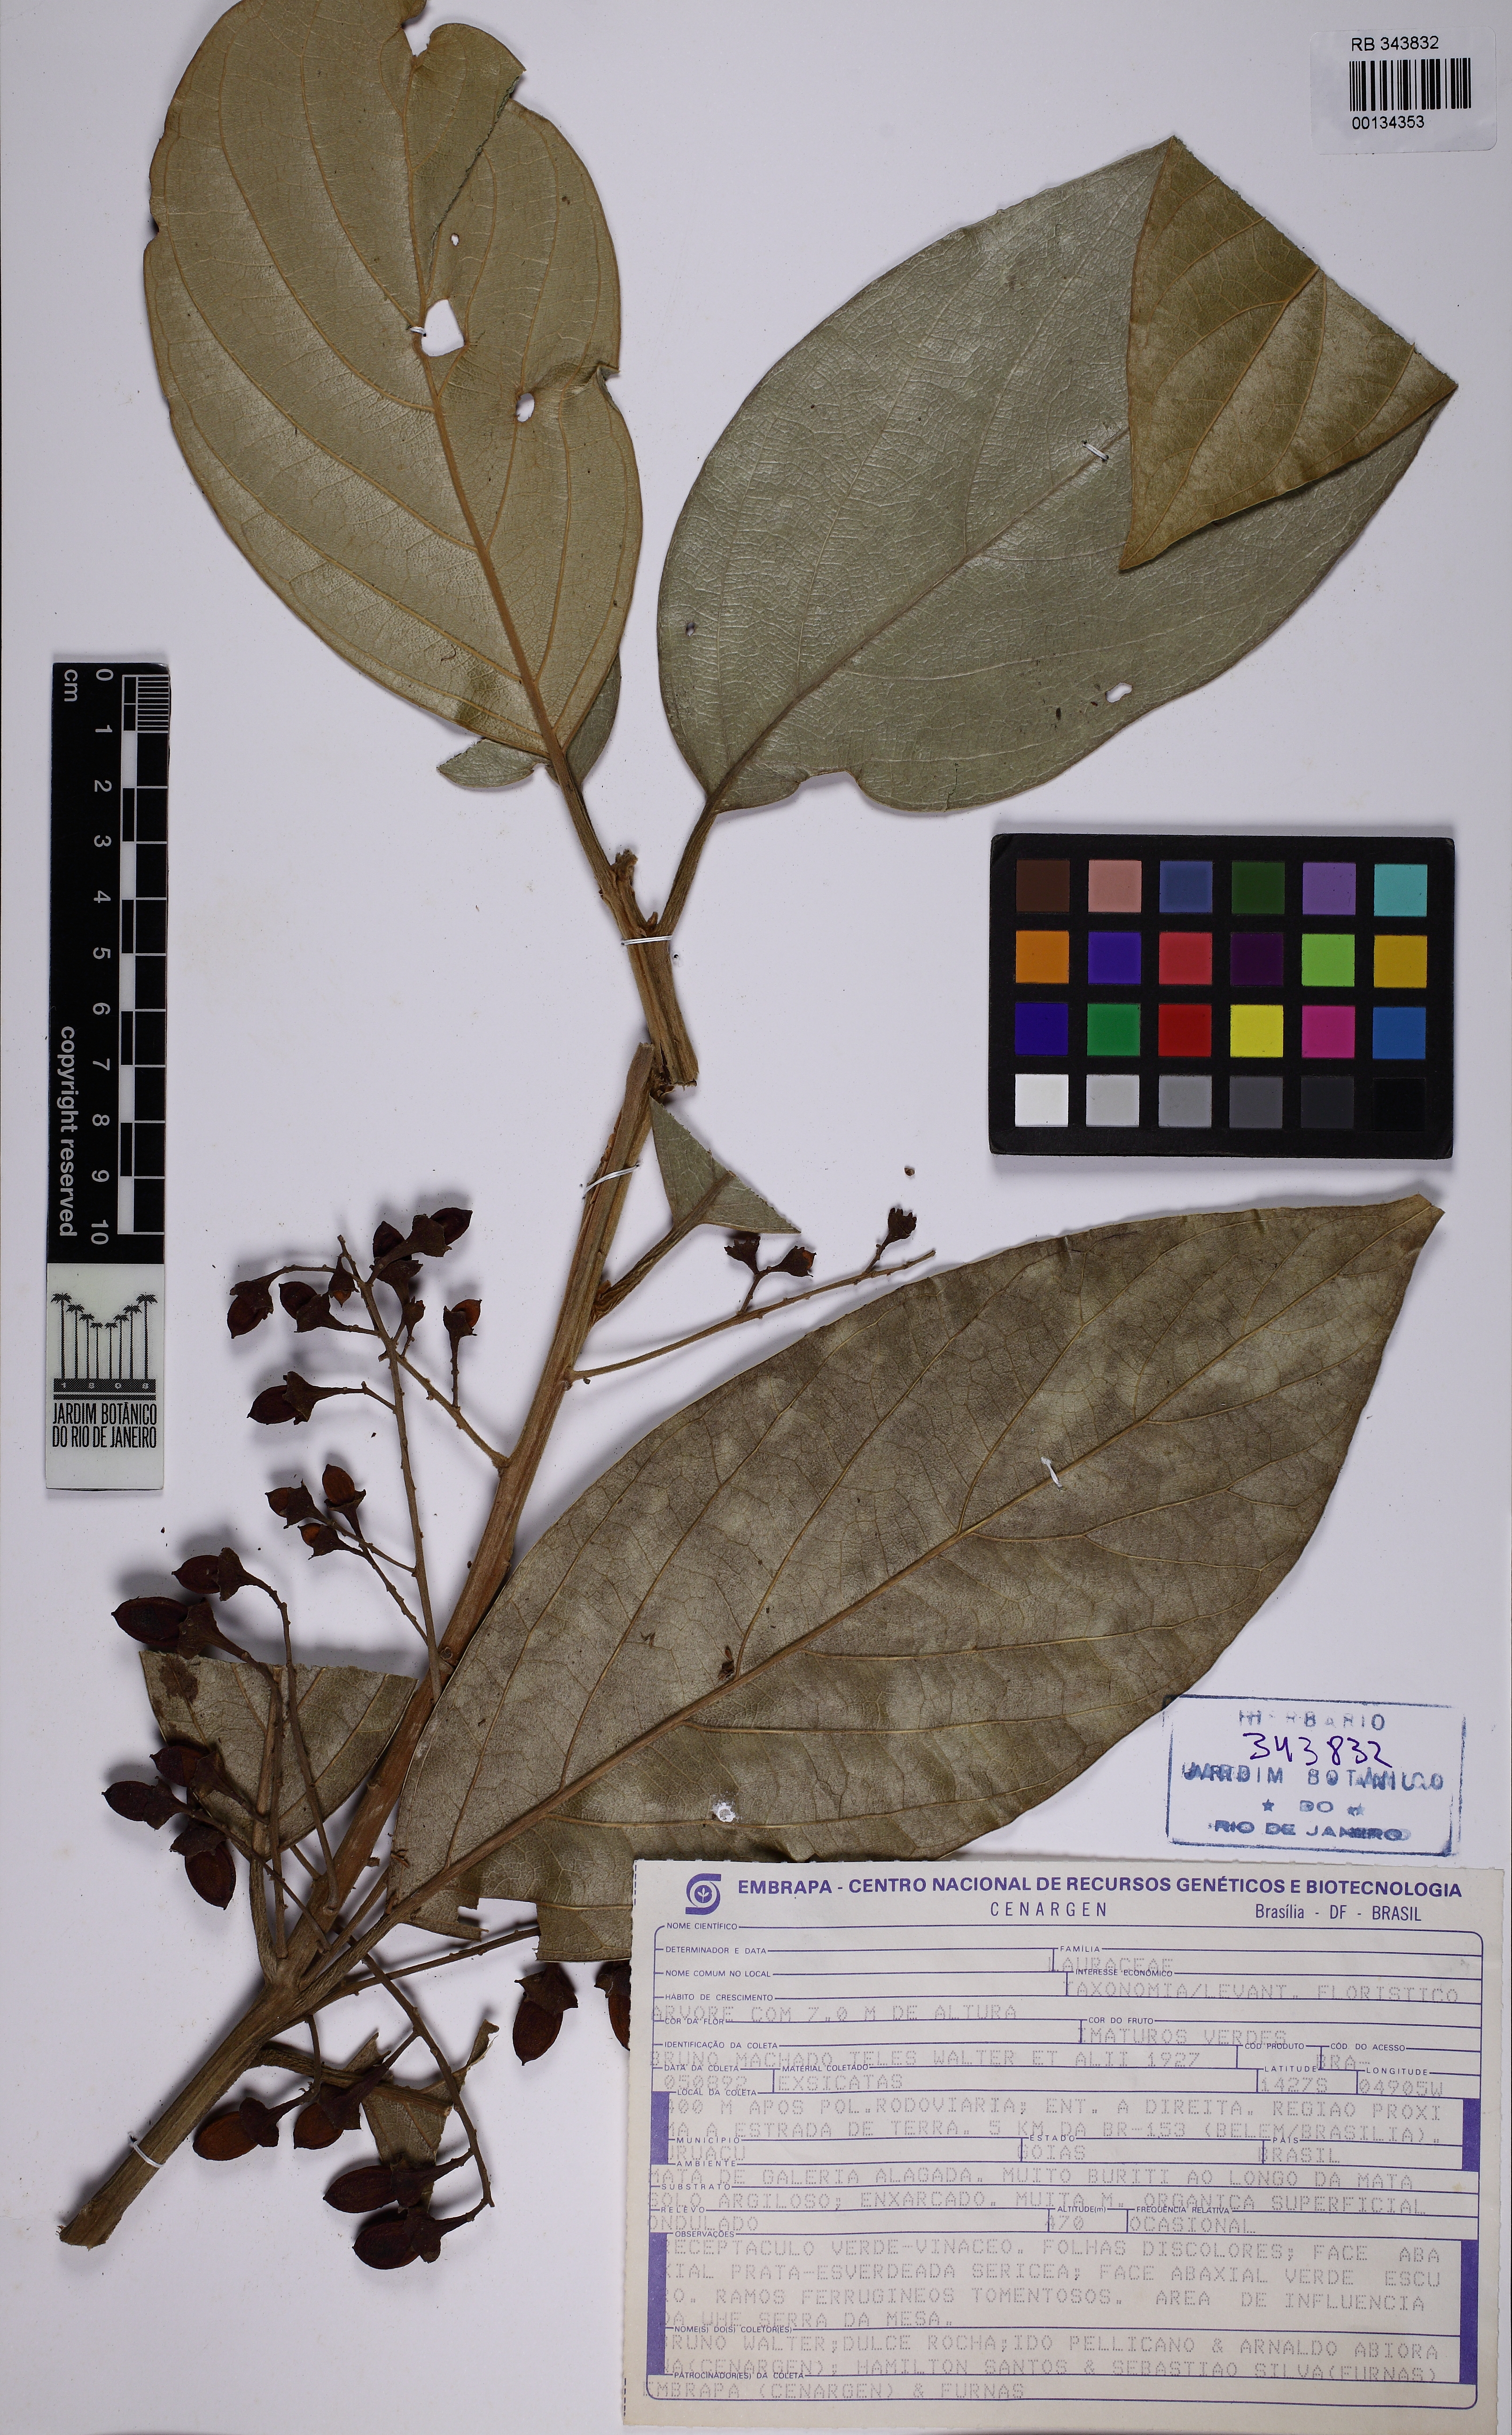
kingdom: Plantae
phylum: Tracheophyta
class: Magnoliopsida
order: Laurales
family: Lauraceae
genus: Endlicheria
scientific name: Endlicheria
